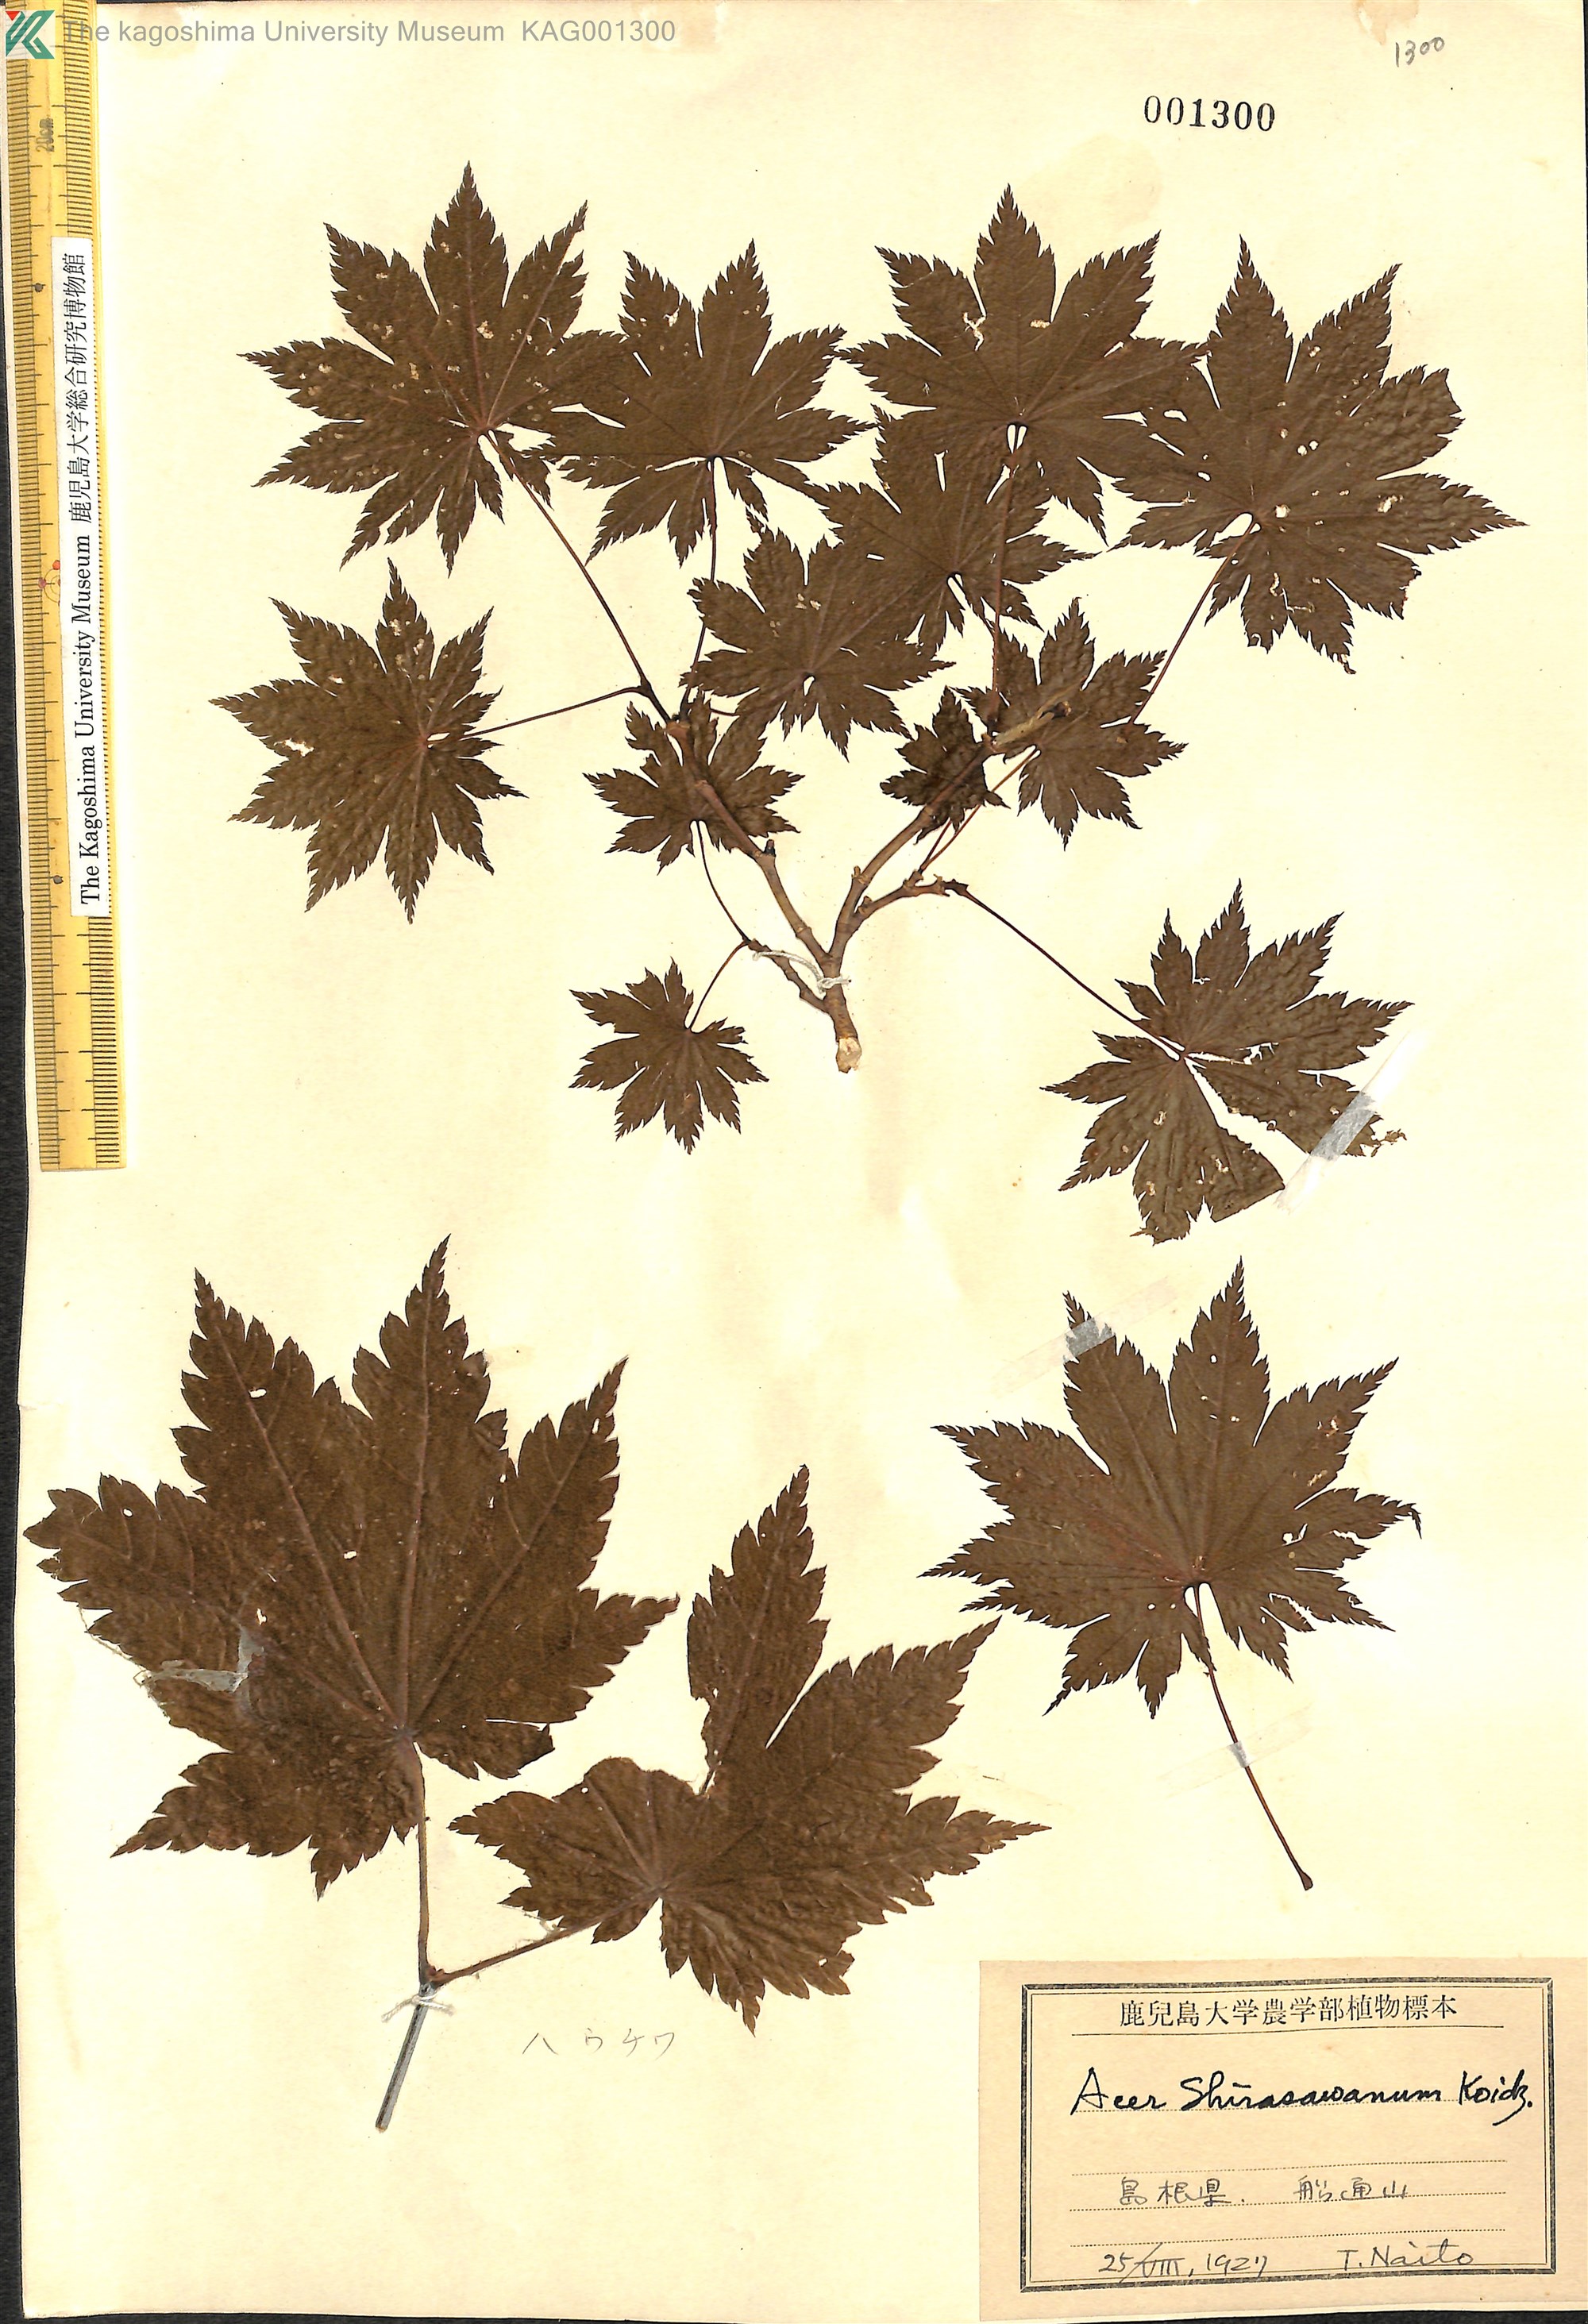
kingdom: Plantae
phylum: Tracheophyta
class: Magnoliopsida
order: Sapindales
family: Sapindaceae
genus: Acer
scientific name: Acer shirasawanum
